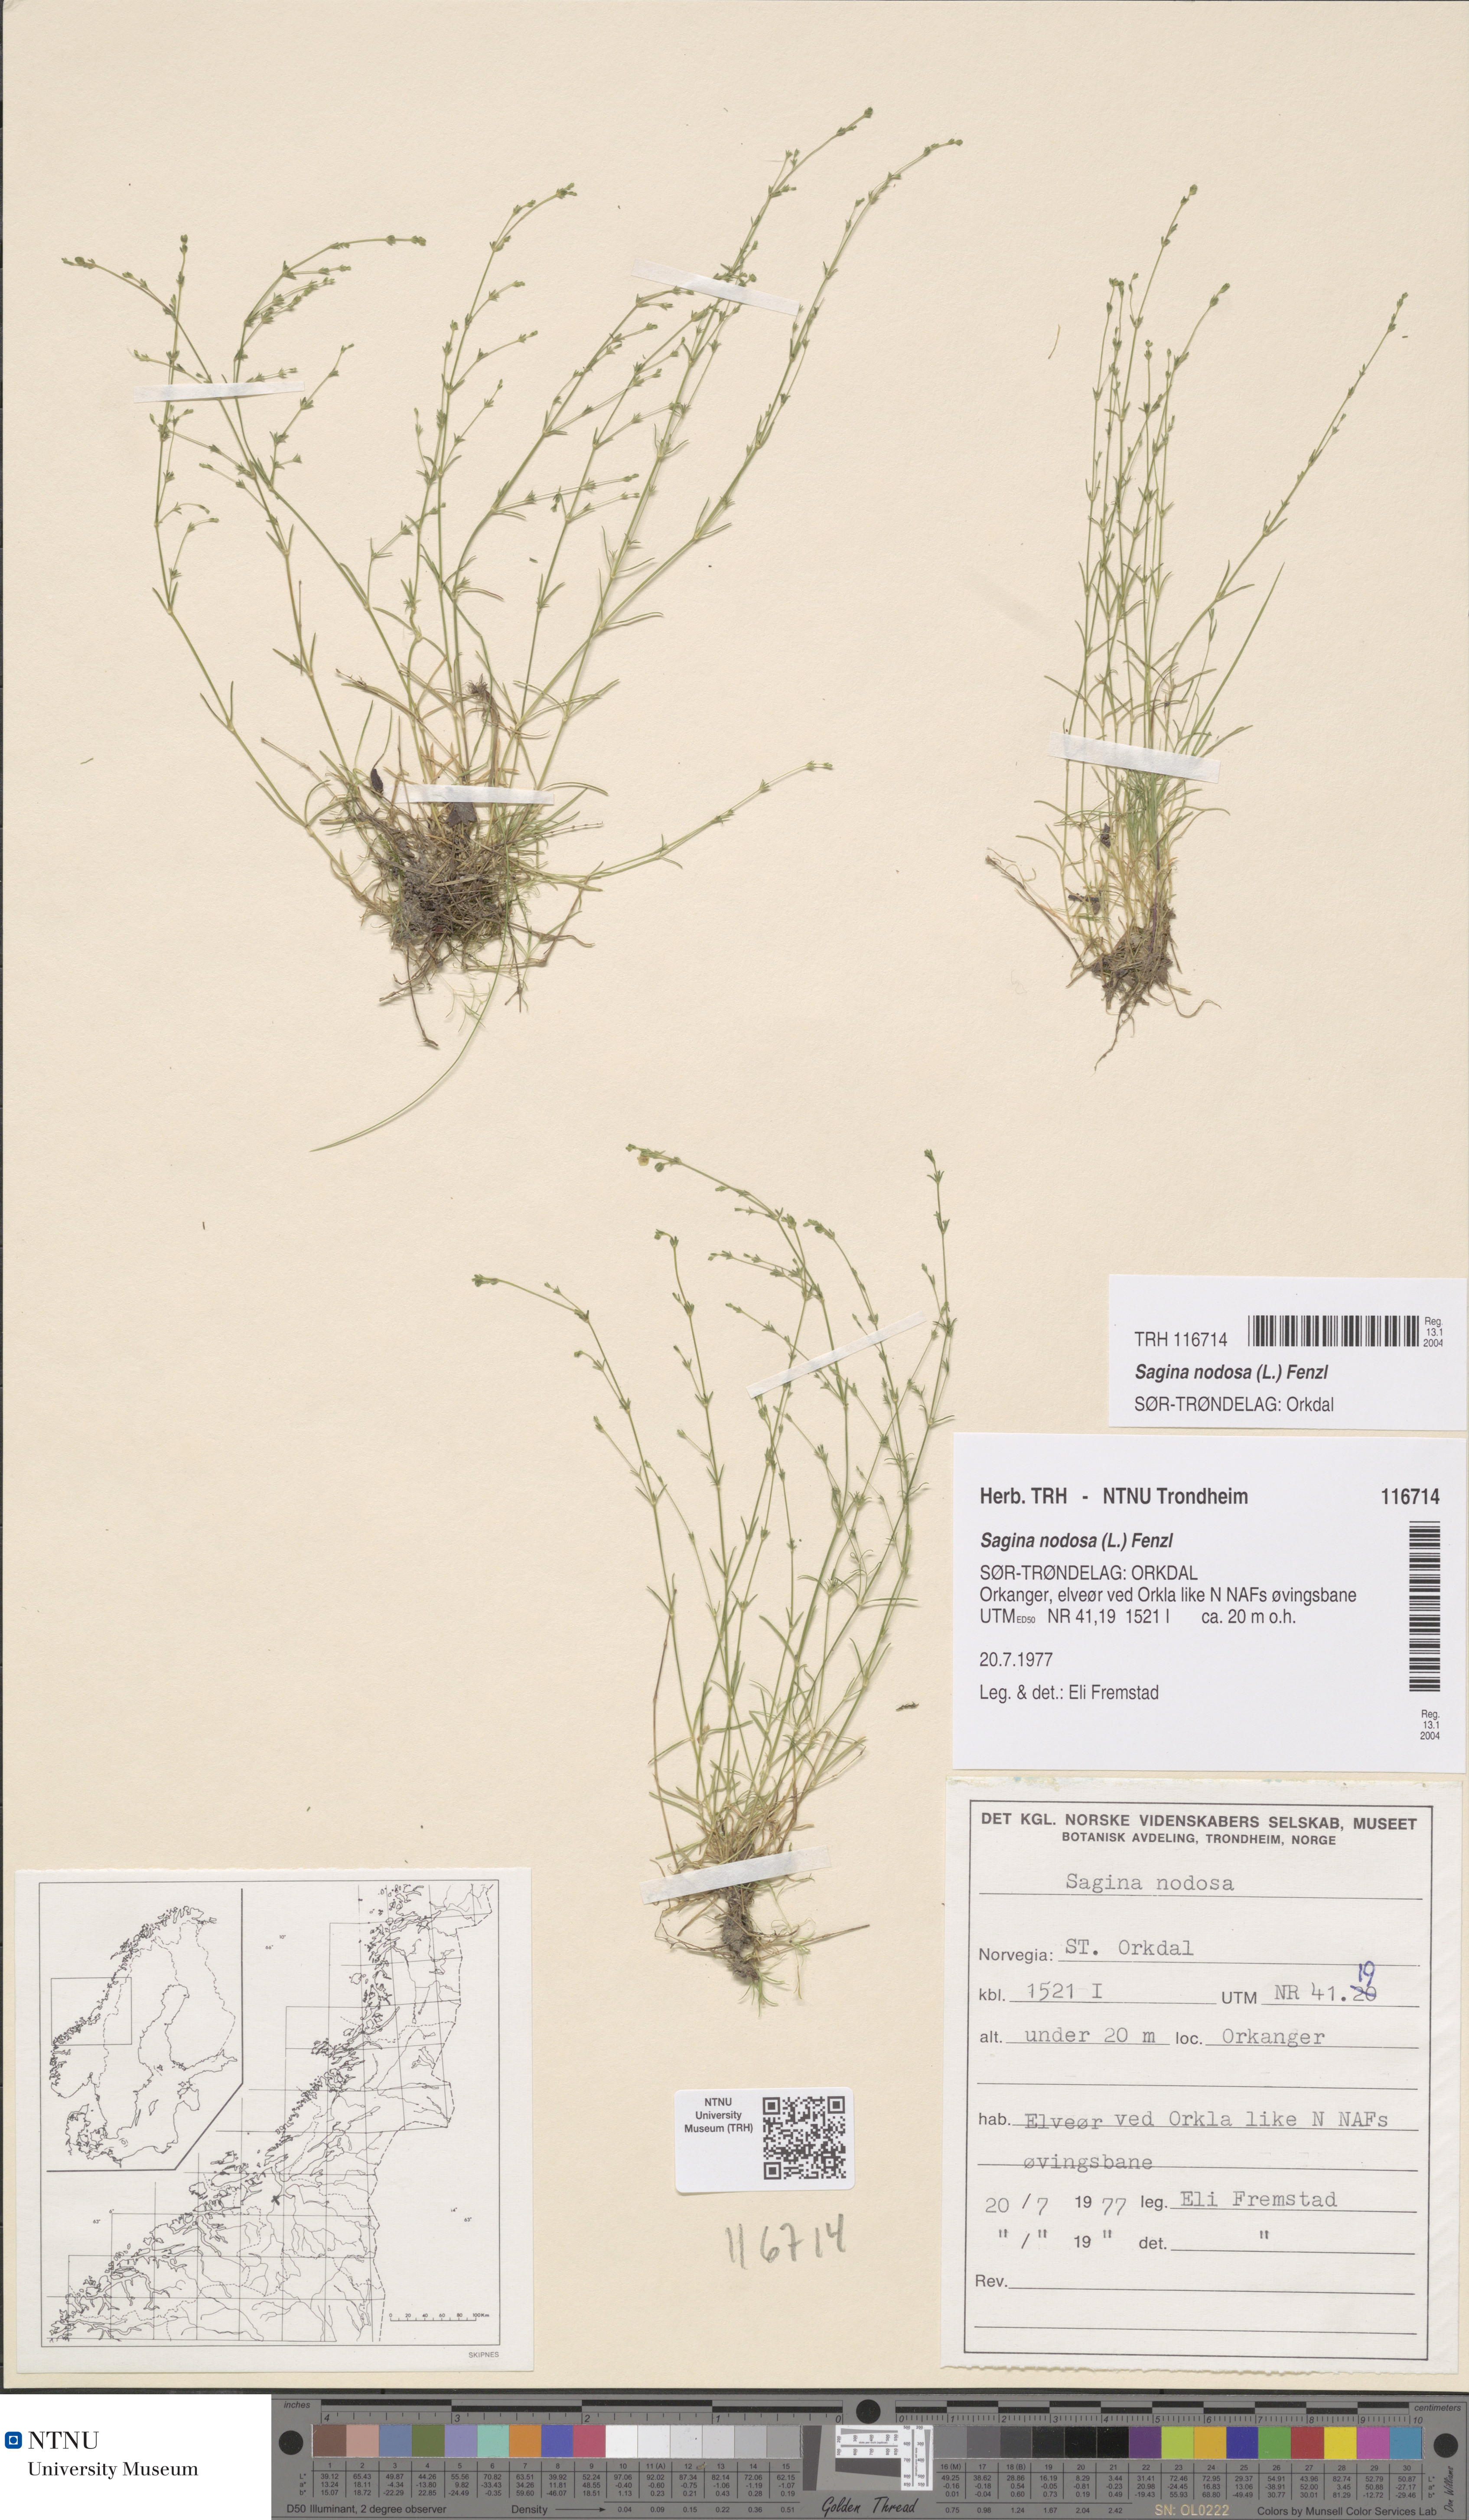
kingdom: Plantae
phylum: Tracheophyta
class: Magnoliopsida
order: Caryophyllales
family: Caryophyllaceae
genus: Sagina
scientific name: Sagina nodosa
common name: Knotted pearlwort
